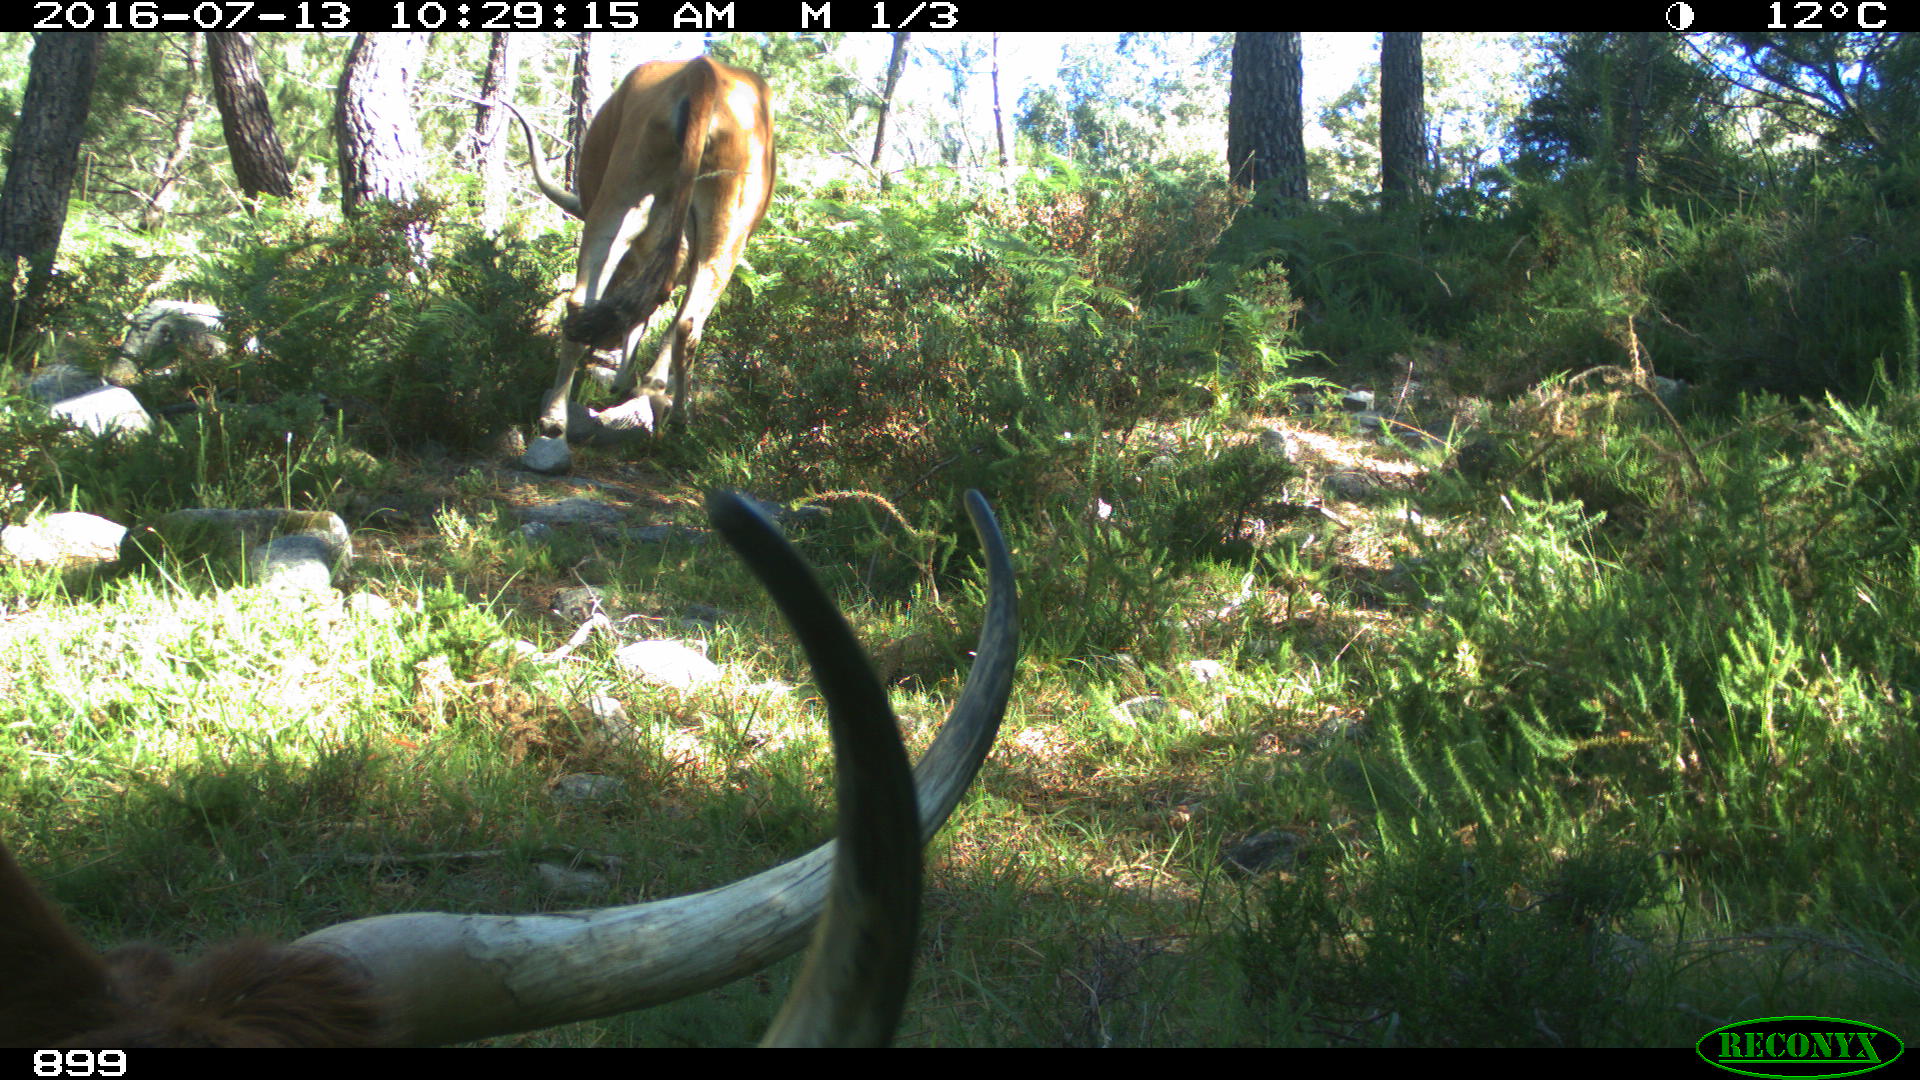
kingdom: Animalia
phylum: Chordata
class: Mammalia
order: Artiodactyla
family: Bovidae
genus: Bos
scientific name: Bos taurus
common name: Domesticated cattle
